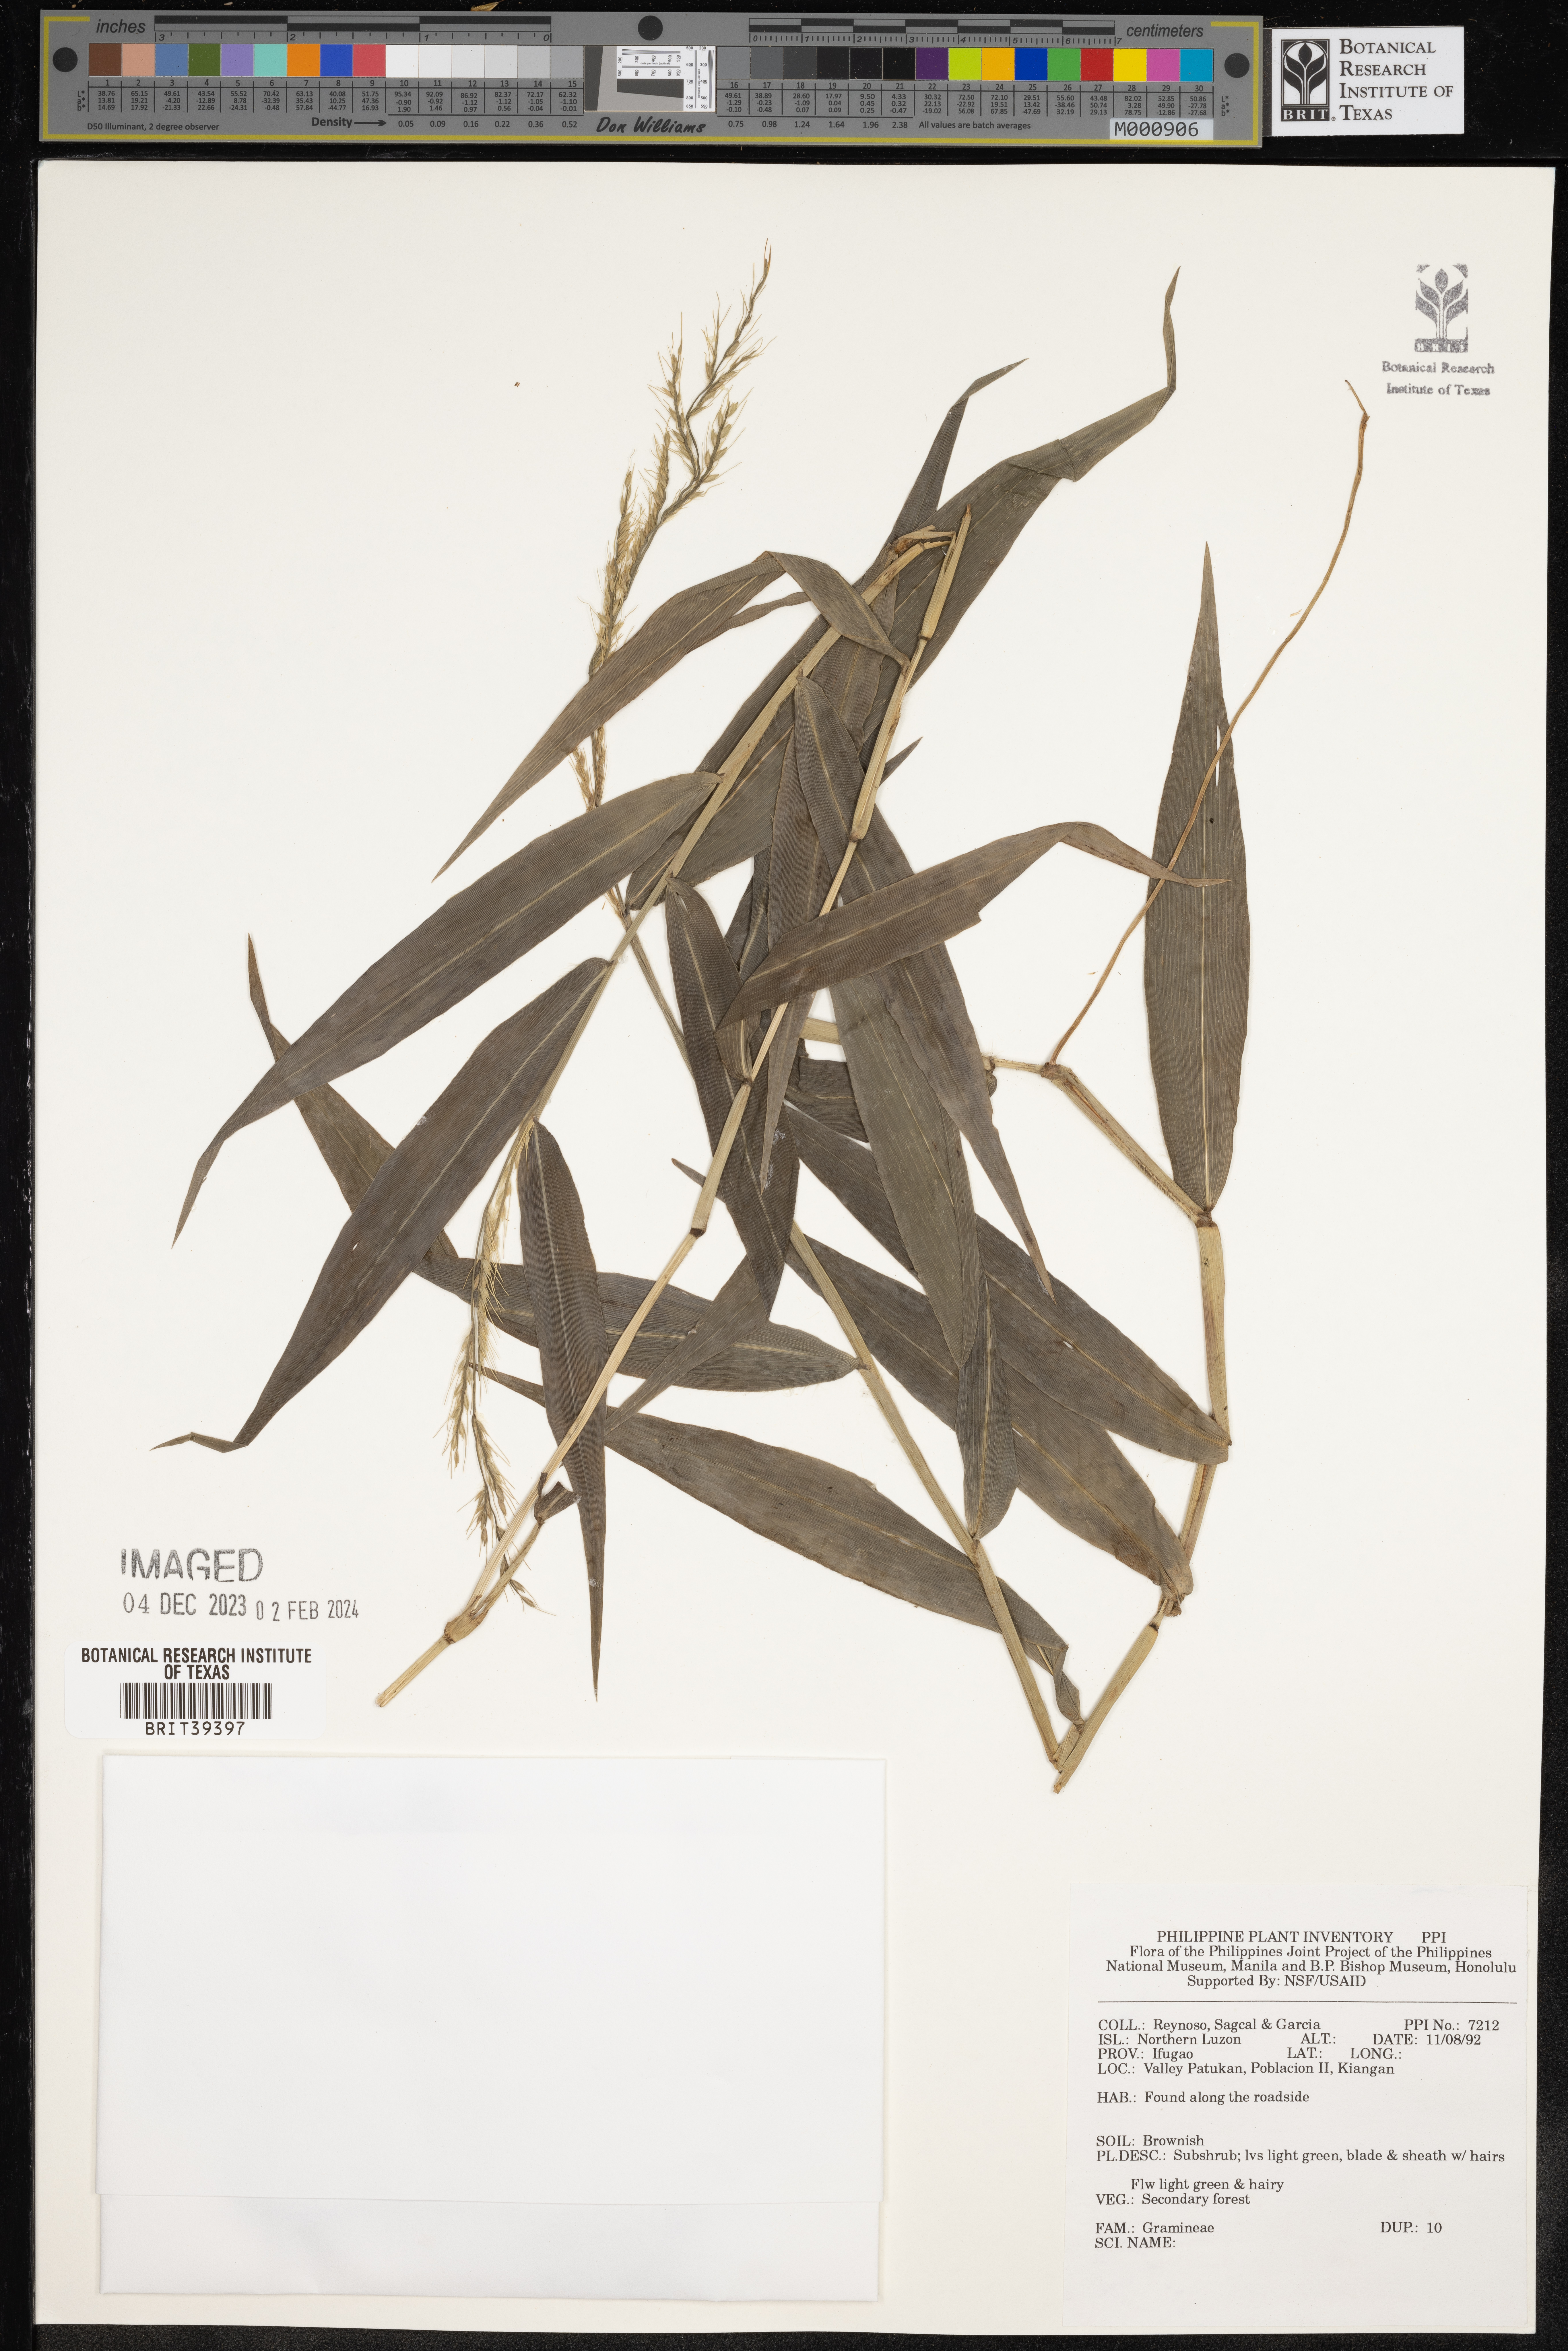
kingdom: Plantae
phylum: Tracheophyta
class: Liliopsida
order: Poales
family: Poaceae
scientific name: Poaceae
